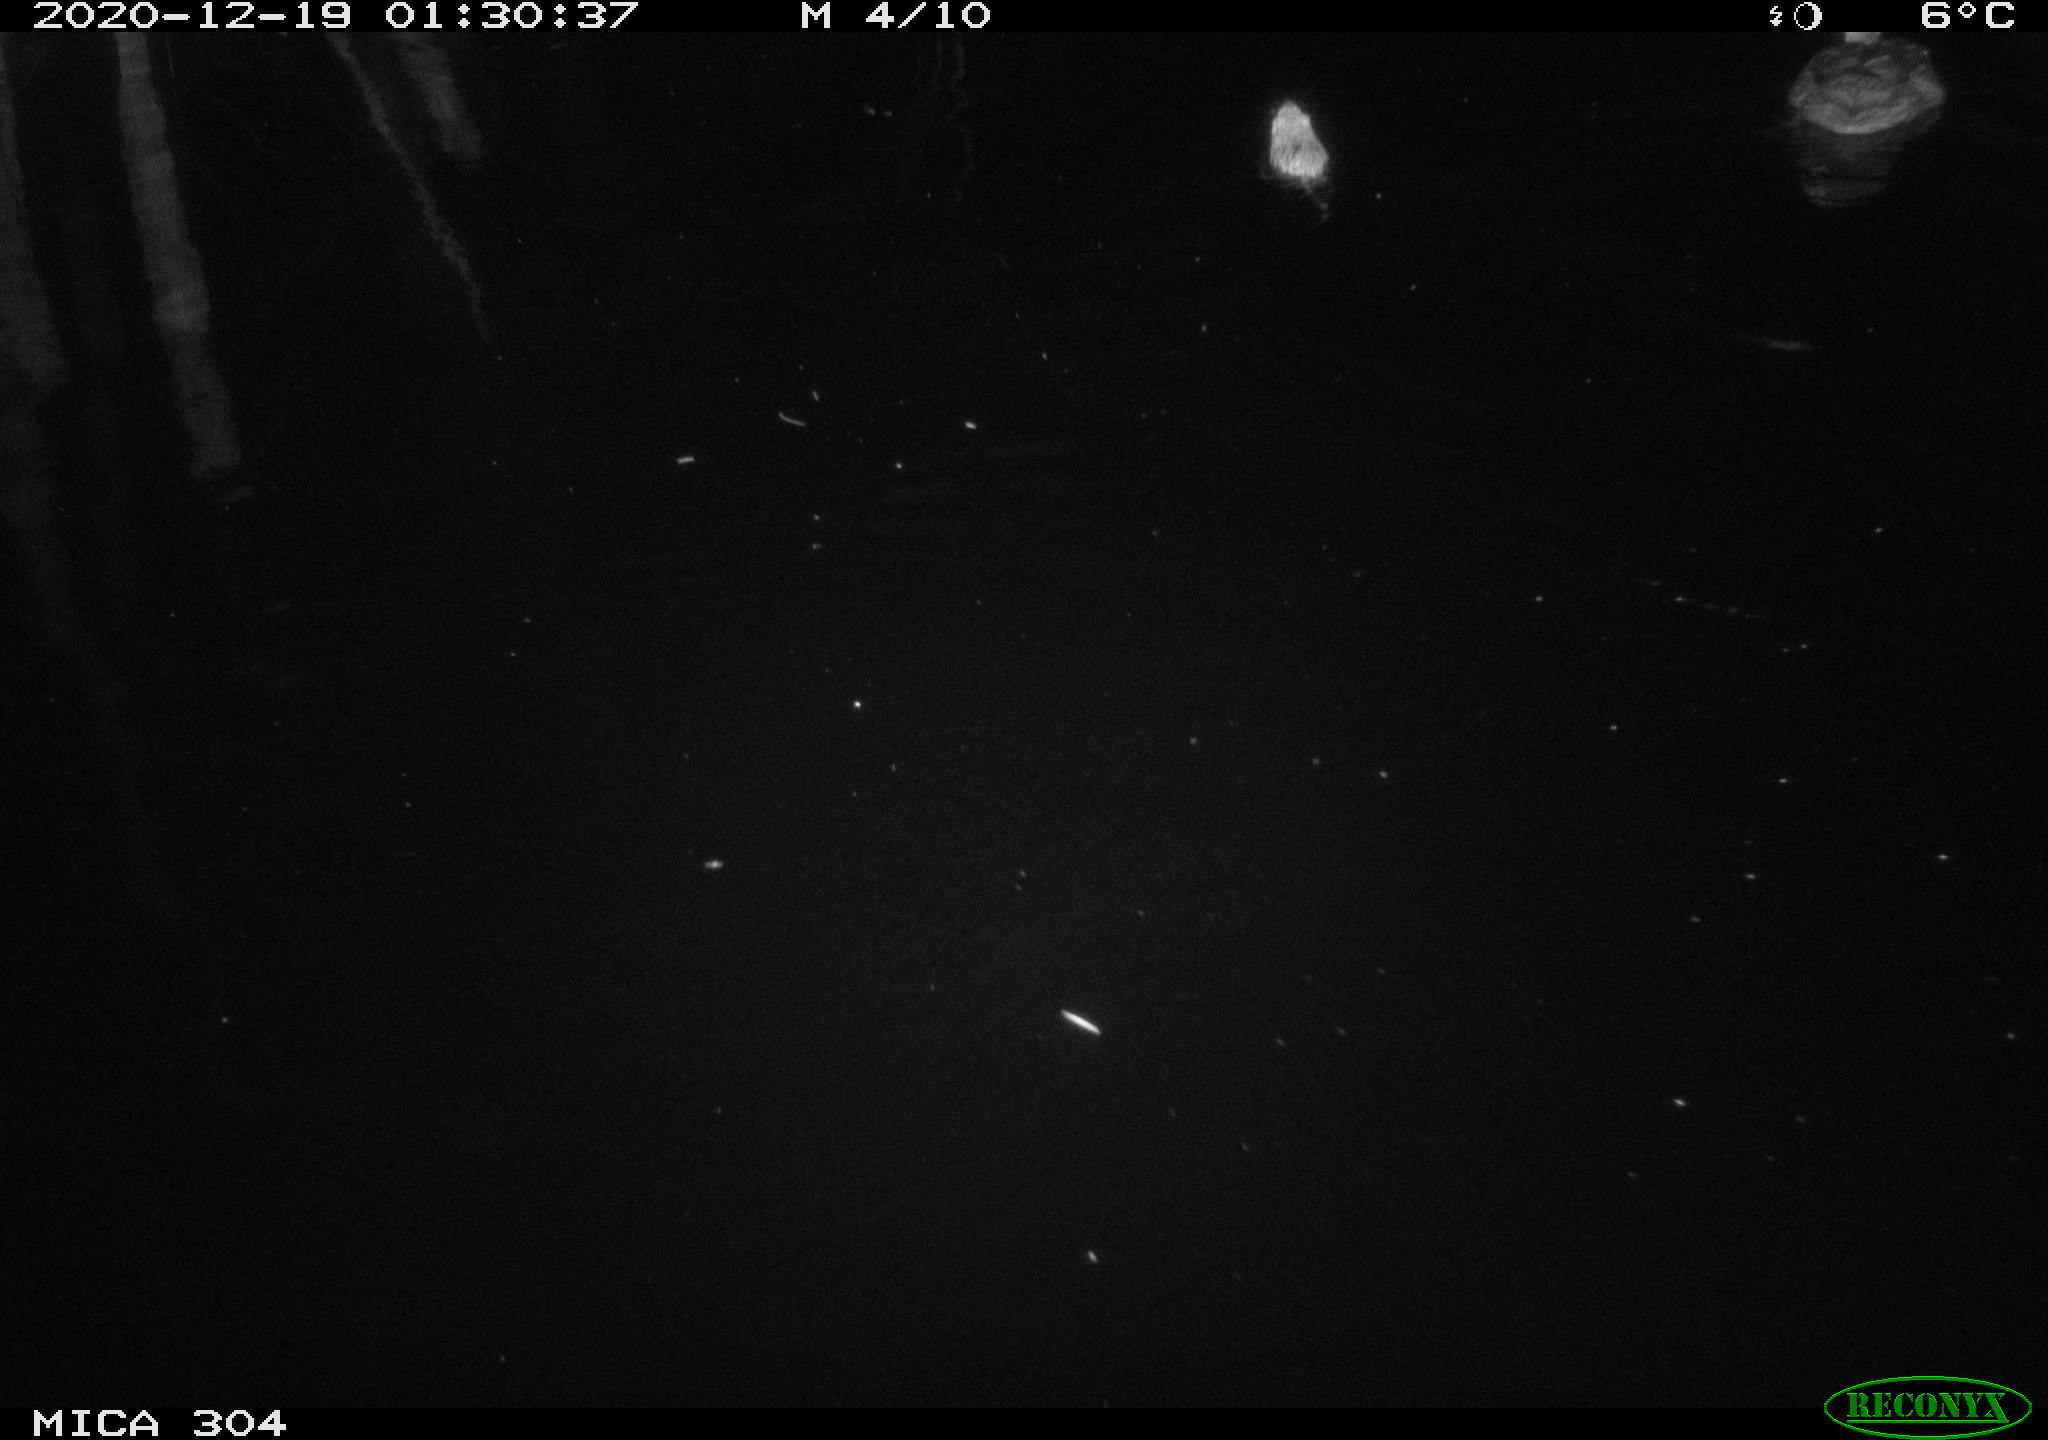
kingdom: Animalia
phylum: Chordata
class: Aves
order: Anseriformes
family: Anatidae
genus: Anas
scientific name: Anas platyrhynchos
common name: Mallard
